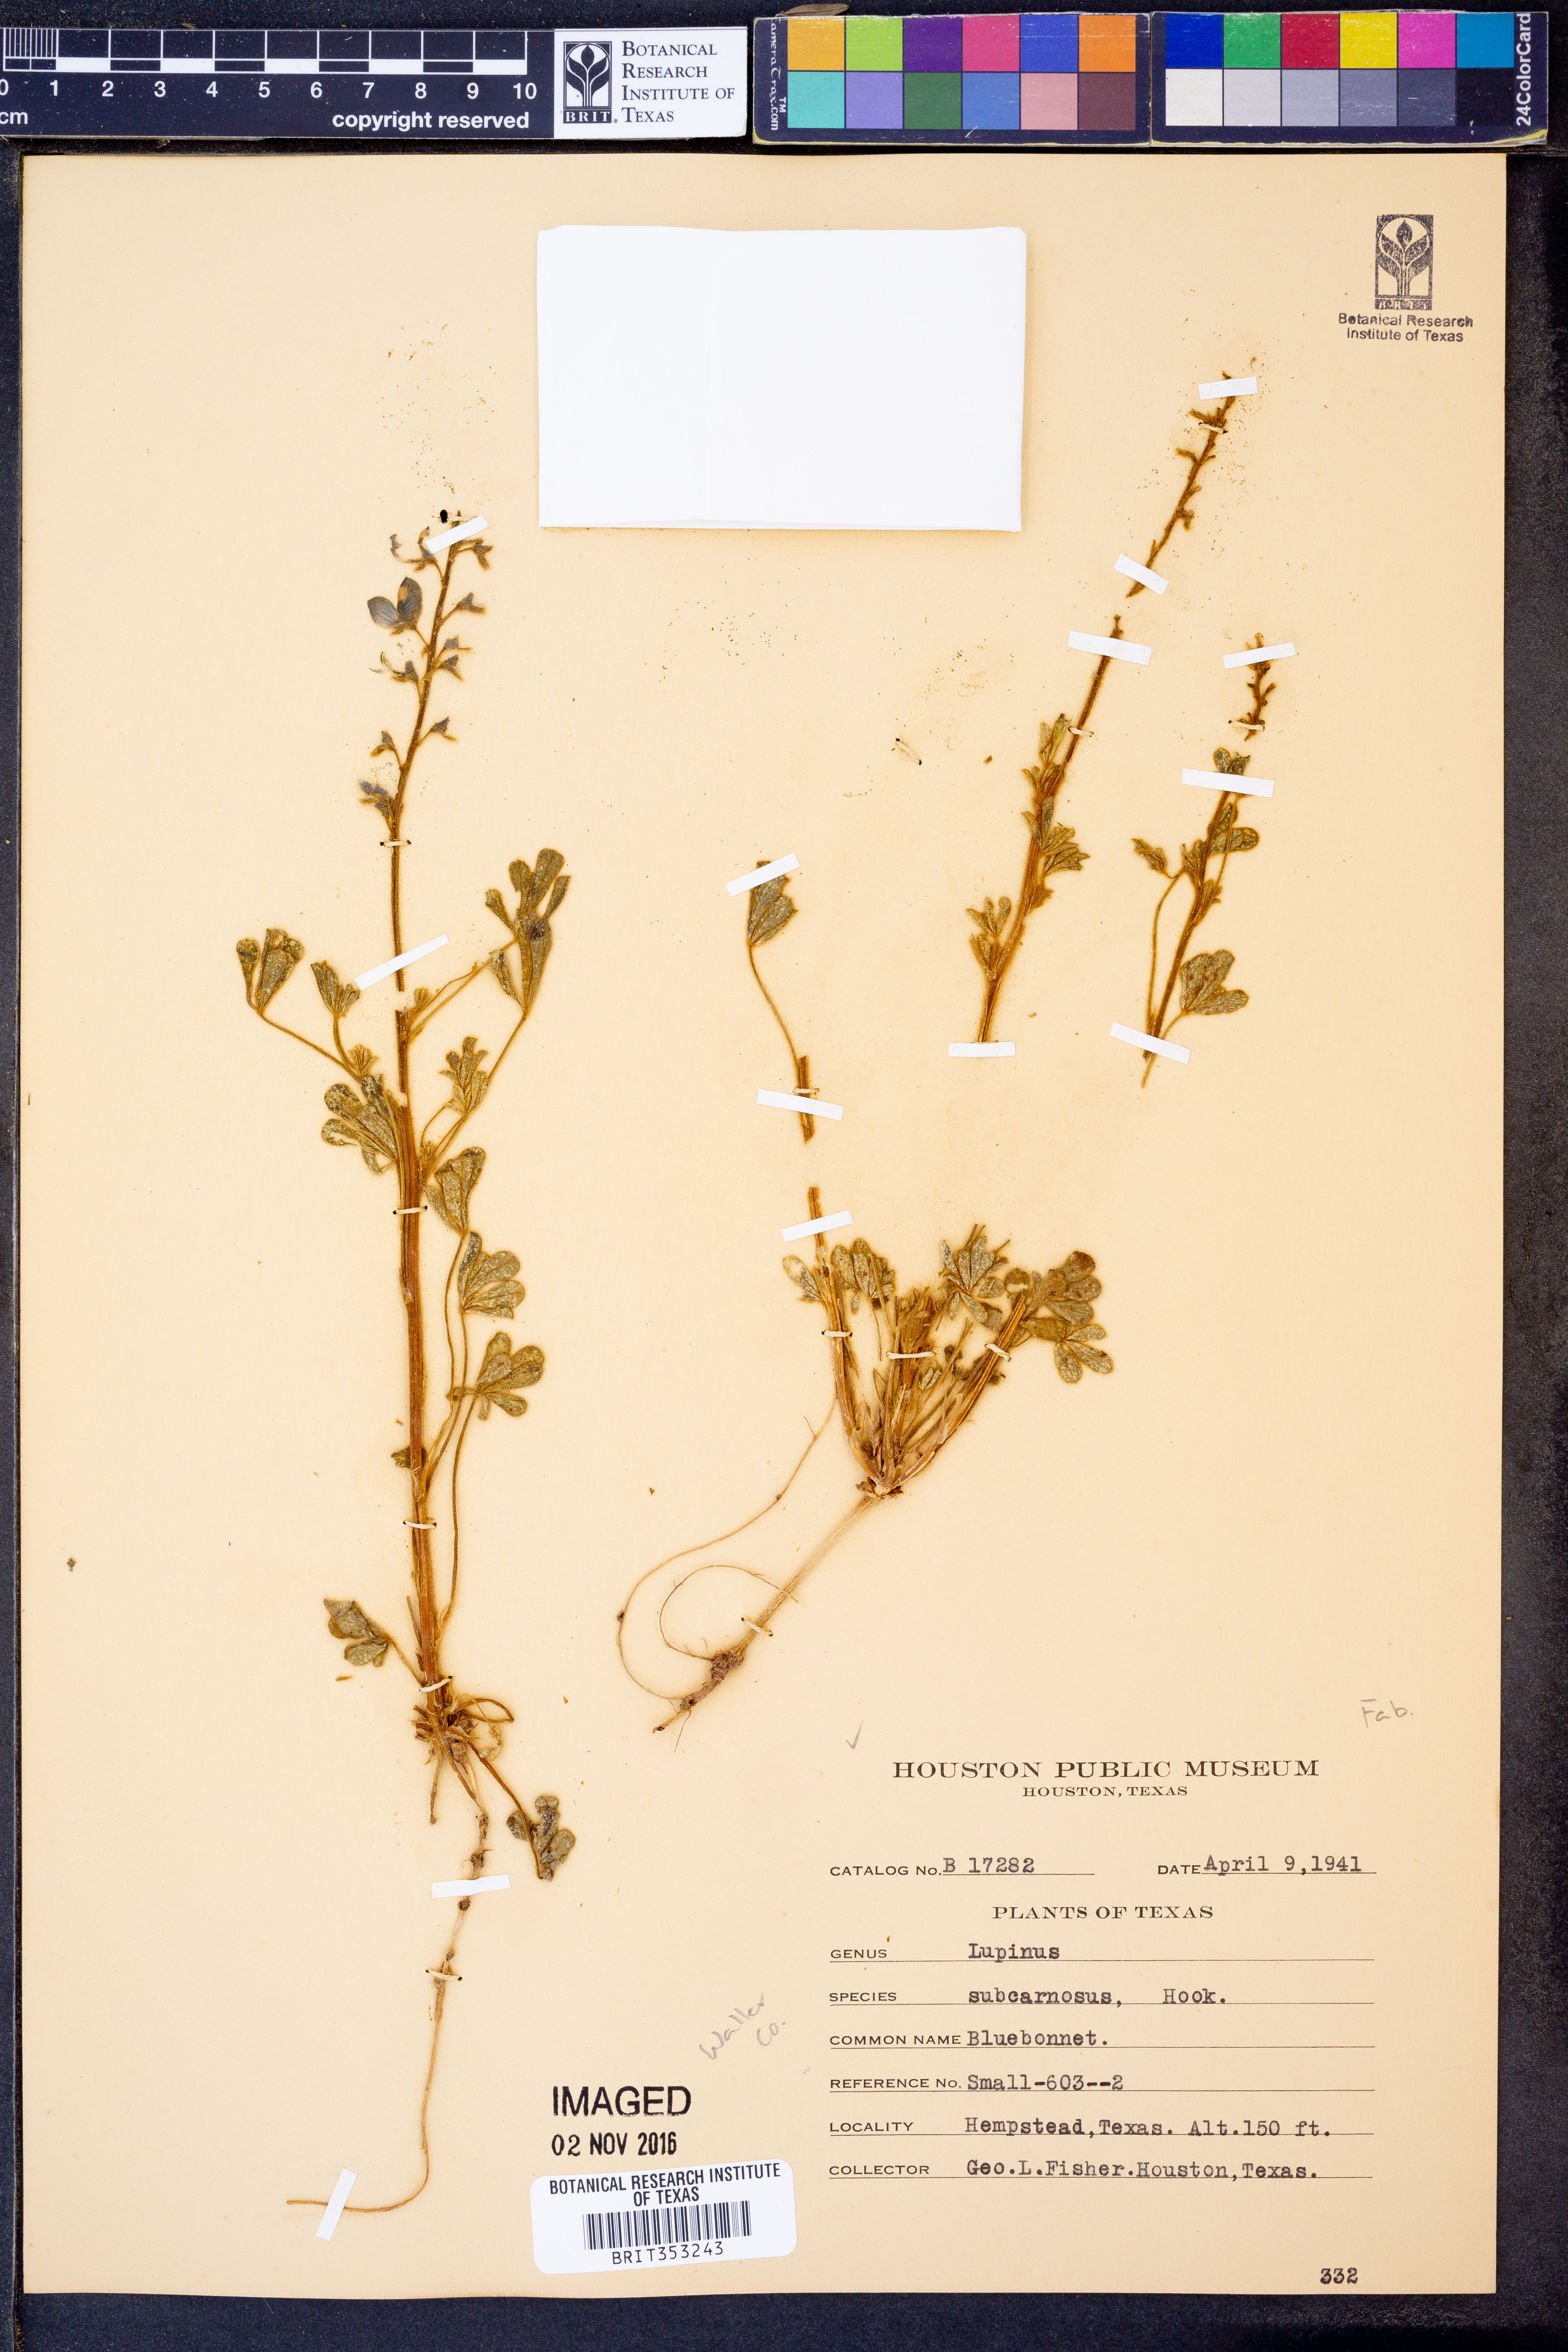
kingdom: Plantae
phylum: Tracheophyta
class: Magnoliopsida
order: Fabales
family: Fabaceae
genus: Lupinus
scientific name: Lupinus subcarnosus
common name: Texas bluebonnet
